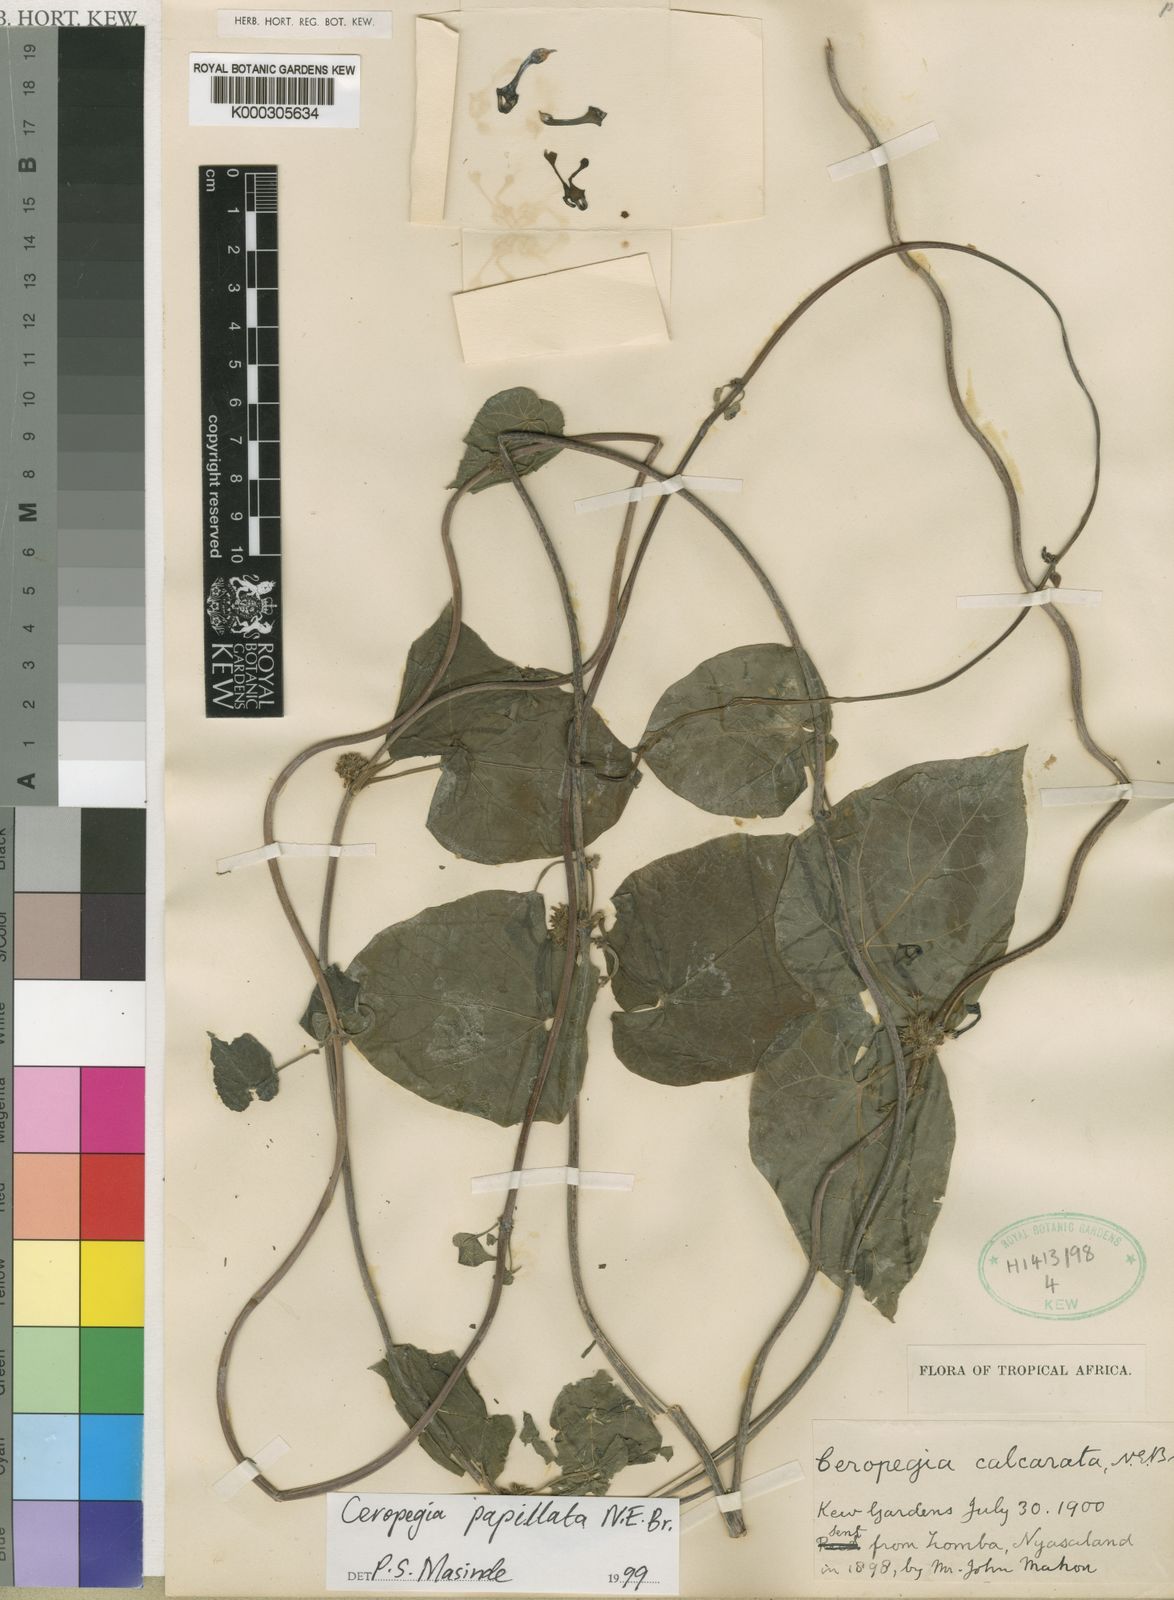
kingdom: Plantae
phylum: Tracheophyta
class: Magnoliopsida
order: Gentianales
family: Apocynaceae
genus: Ceropegia
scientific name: Ceropegia papillata
